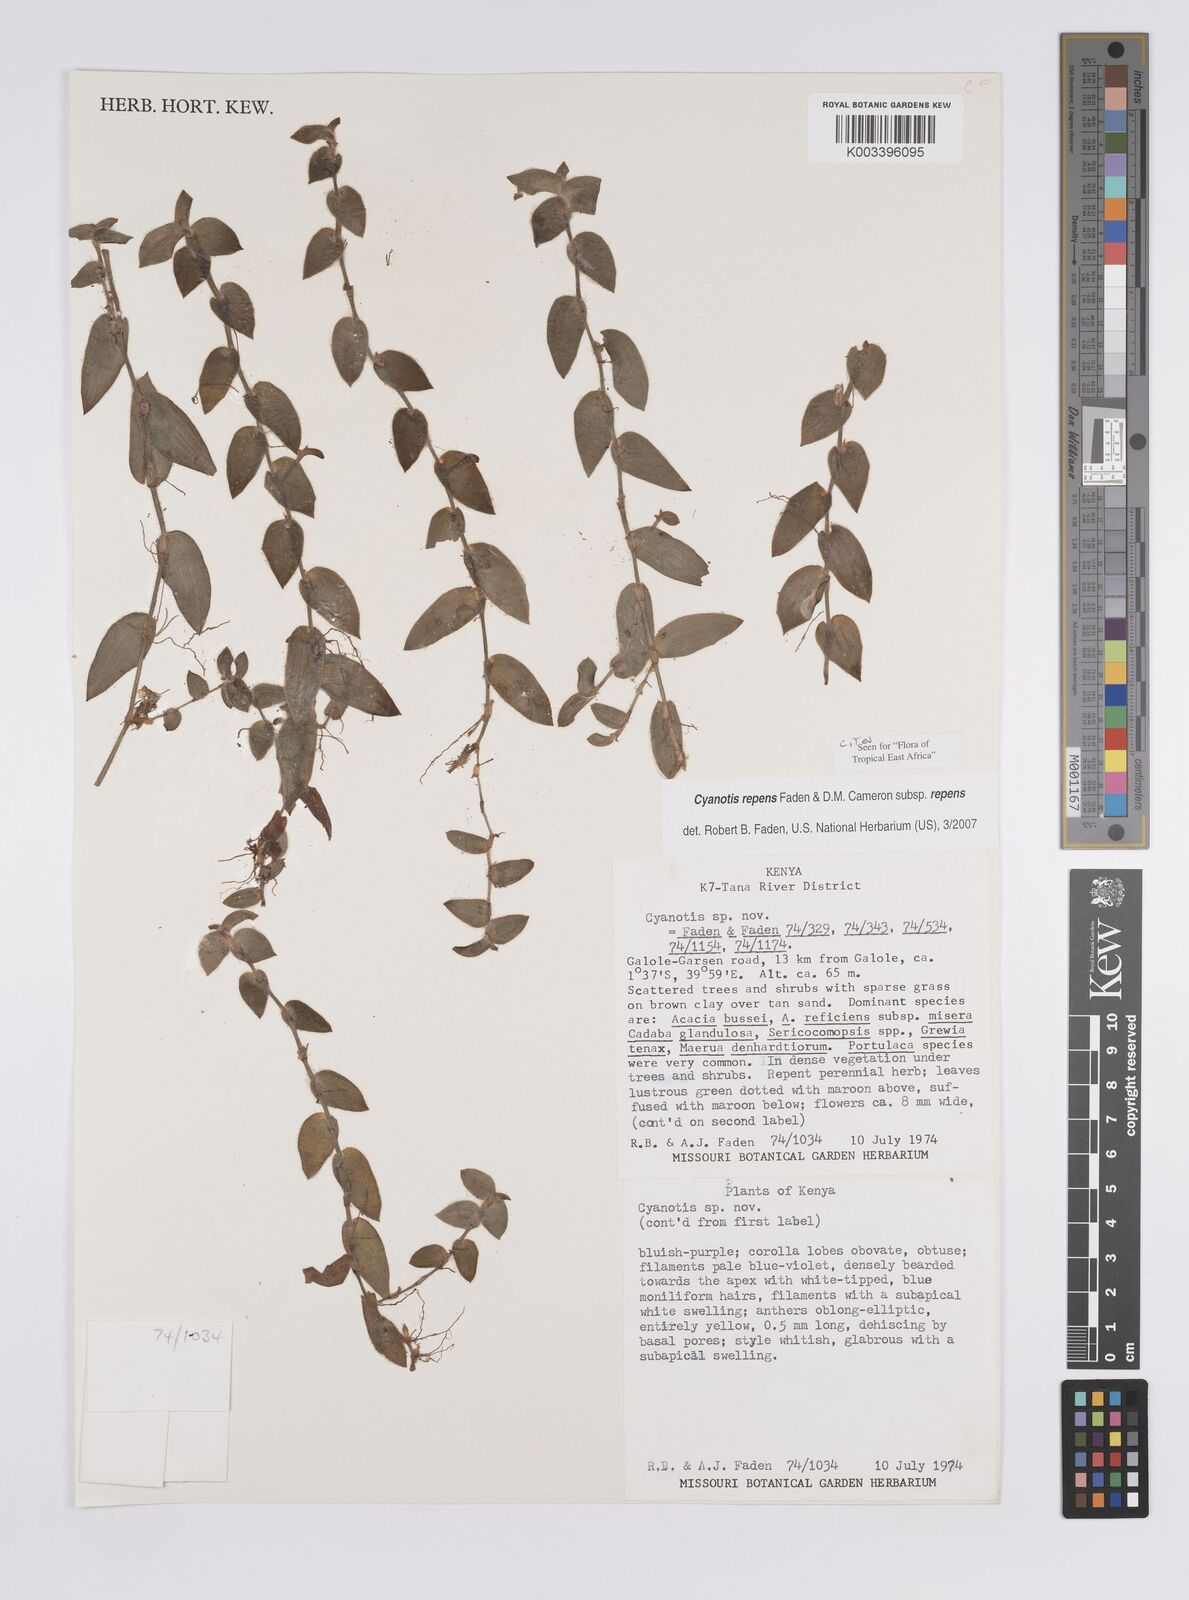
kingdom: Plantae
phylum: Tracheophyta
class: Liliopsida
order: Commelinales
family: Commelinaceae
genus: Cyanotis
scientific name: Cyanotis repens
